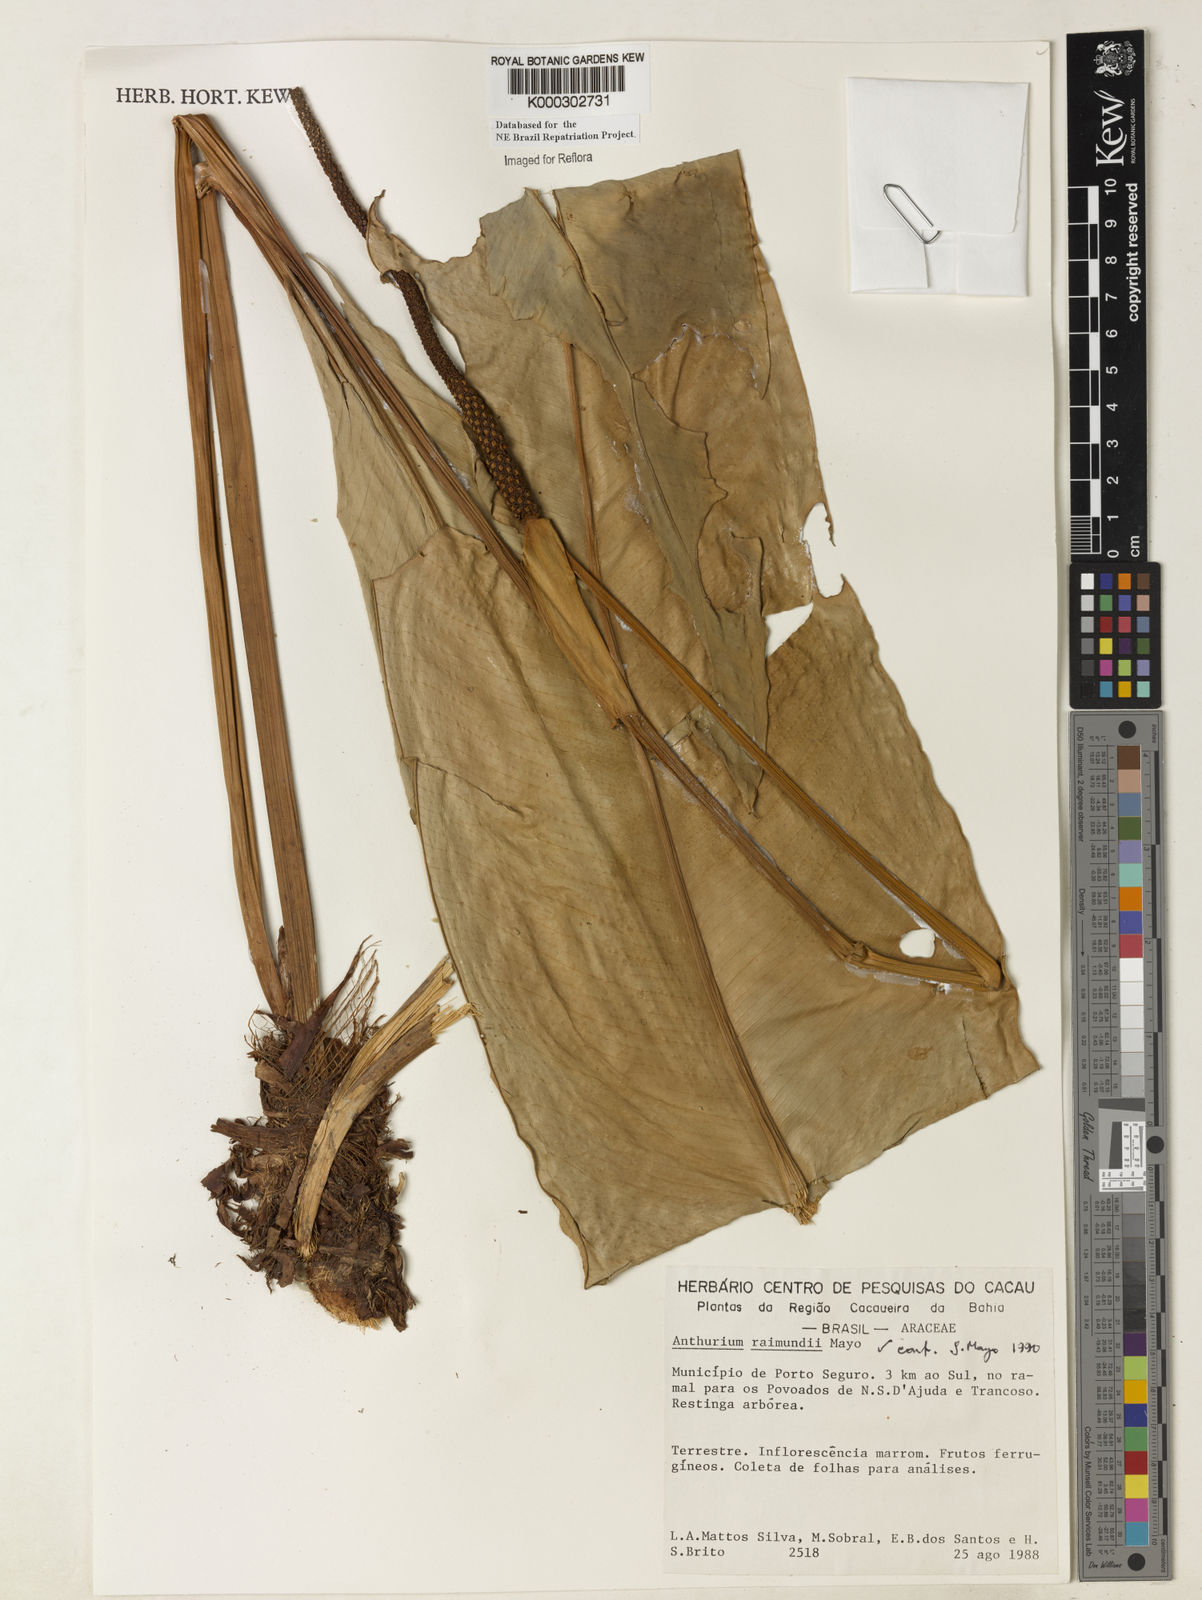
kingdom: Plantae
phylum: Tracheophyta
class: Liliopsida
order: Alismatales
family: Araceae
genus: Anthurium
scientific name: Anthurium raimundii
